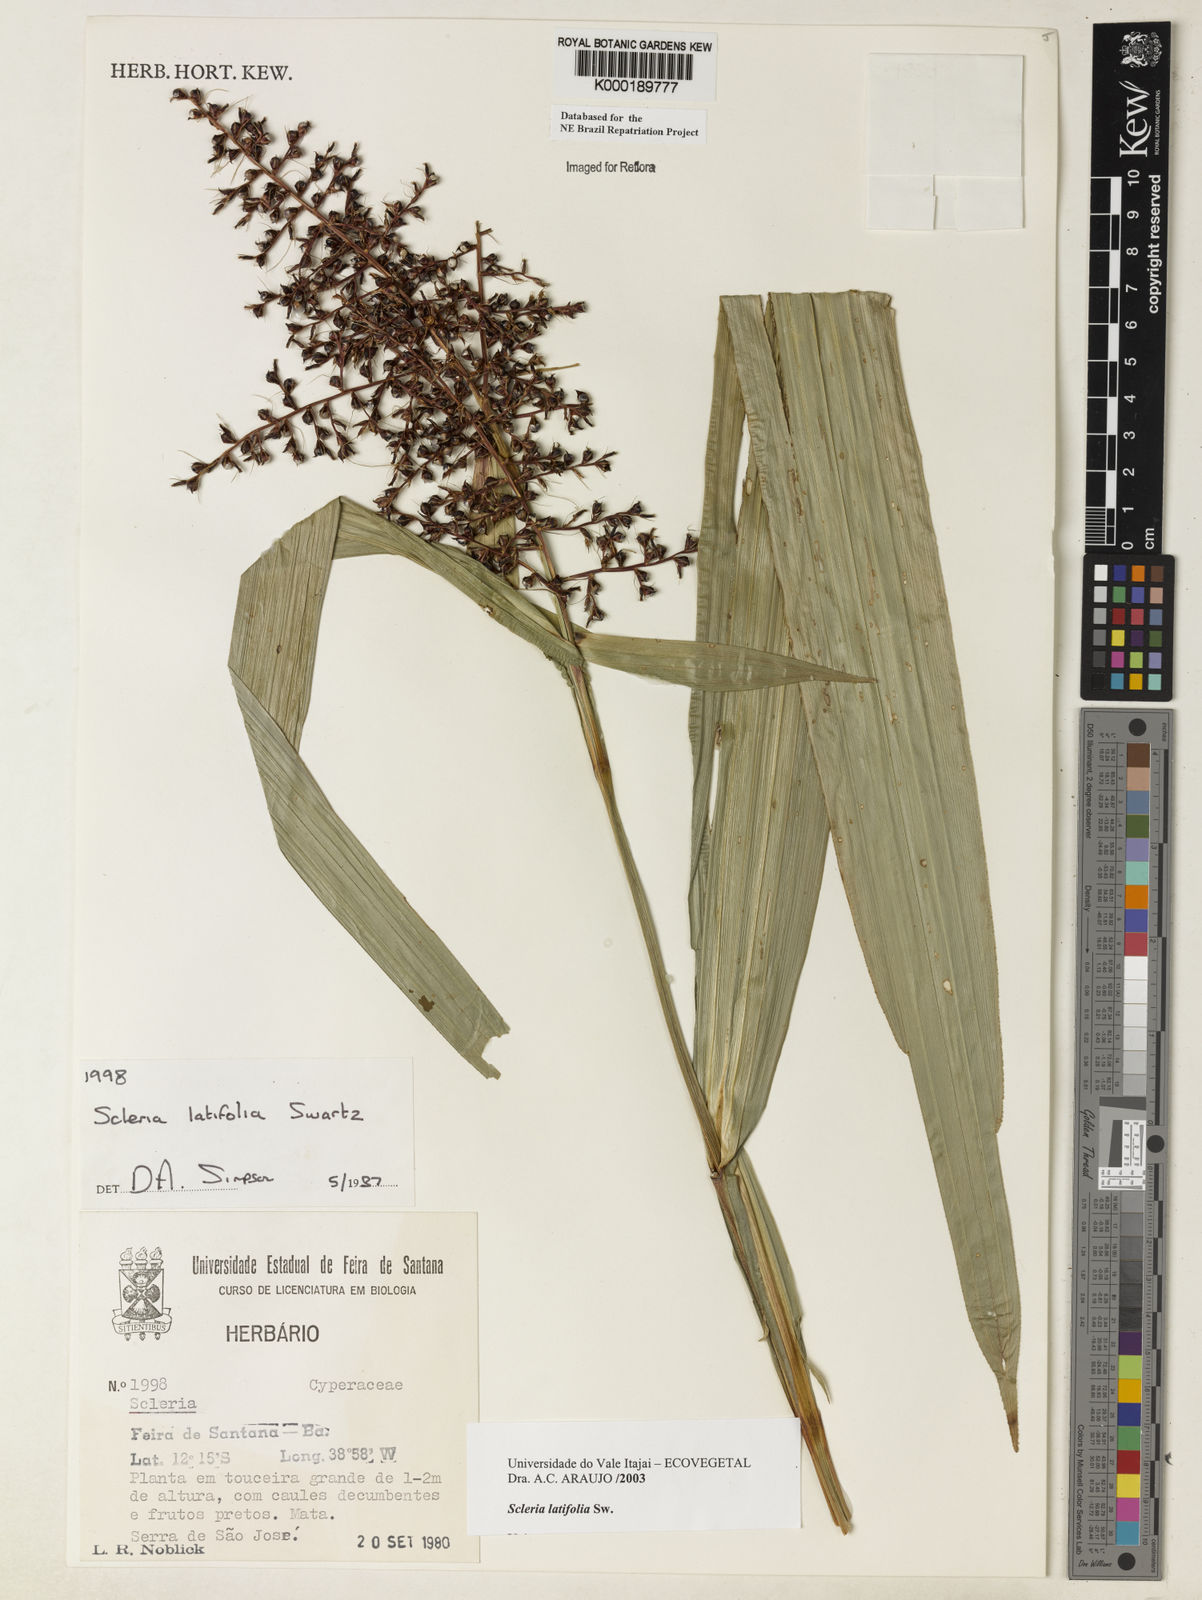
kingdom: Plantae
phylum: Tracheophyta
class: Liliopsida
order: Poales
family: Cyperaceae
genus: Scleria
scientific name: Scleria latifolia
